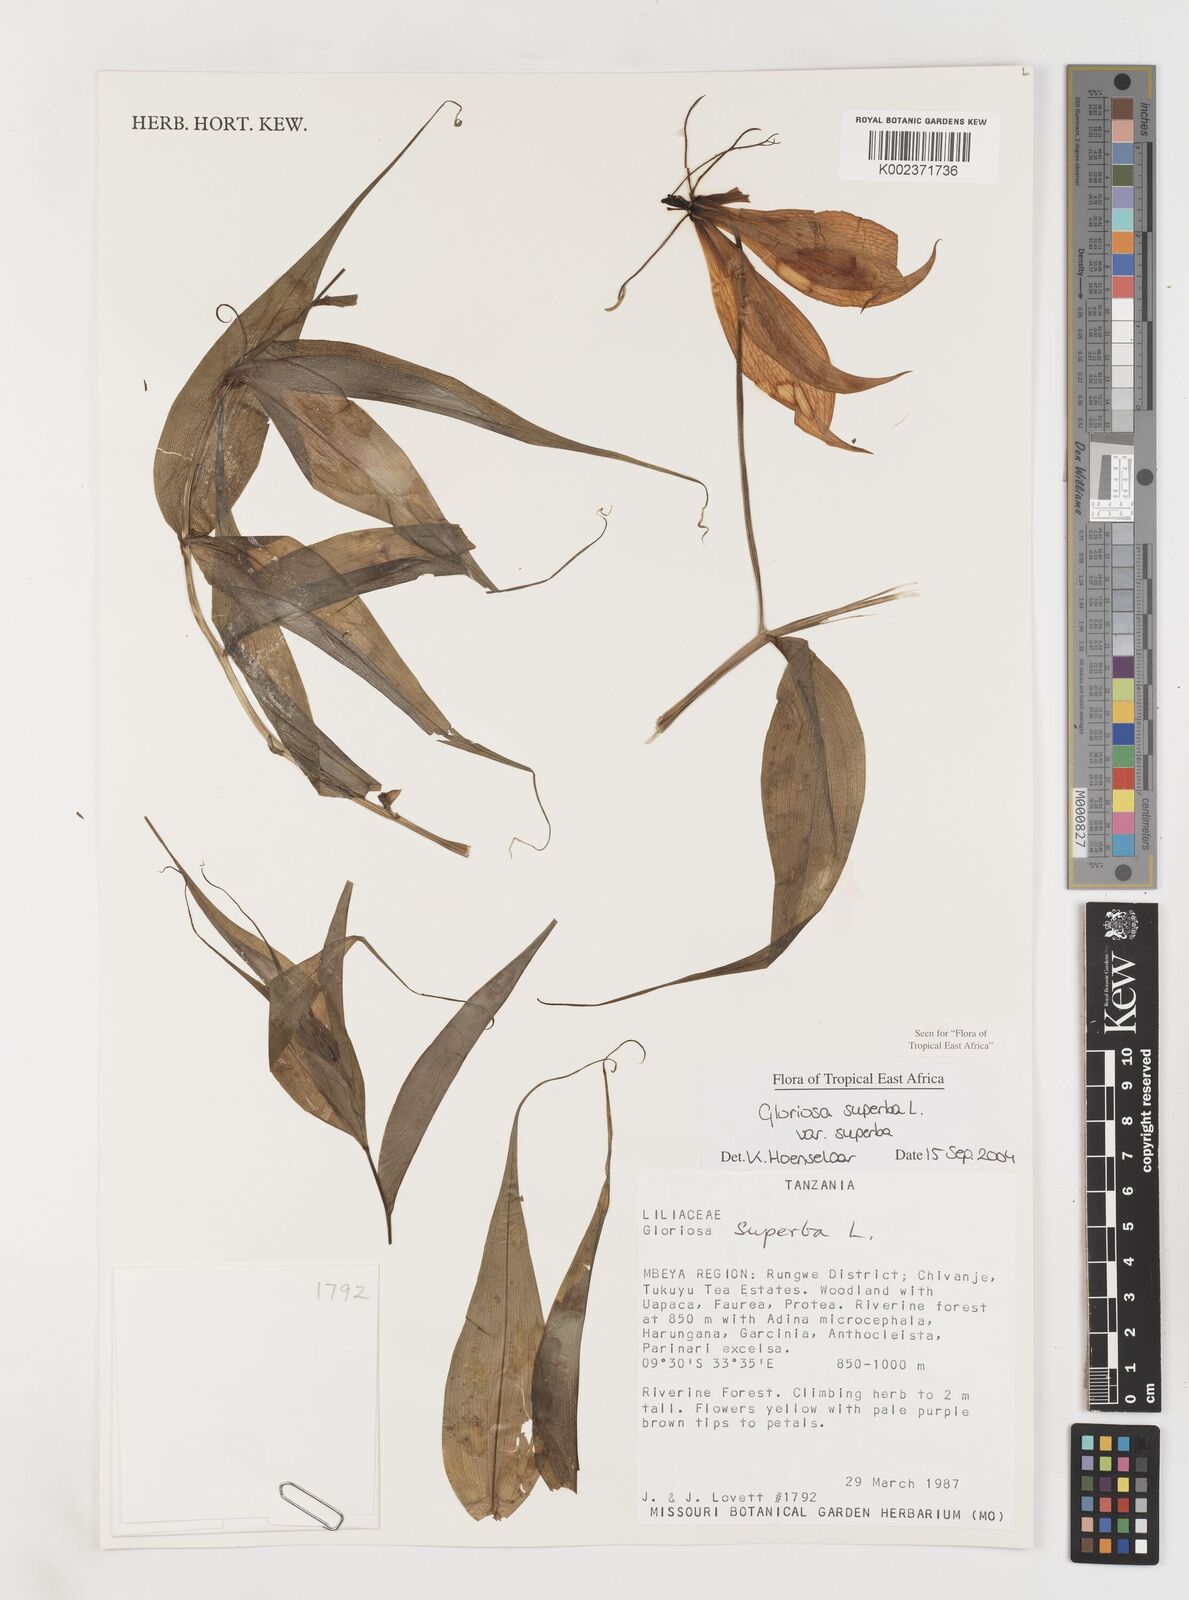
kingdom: Plantae
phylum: Tracheophyta
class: Liliopsida
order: Liliales
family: Colchicaceae
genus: Gloriosa
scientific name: Gloriosa simplex
